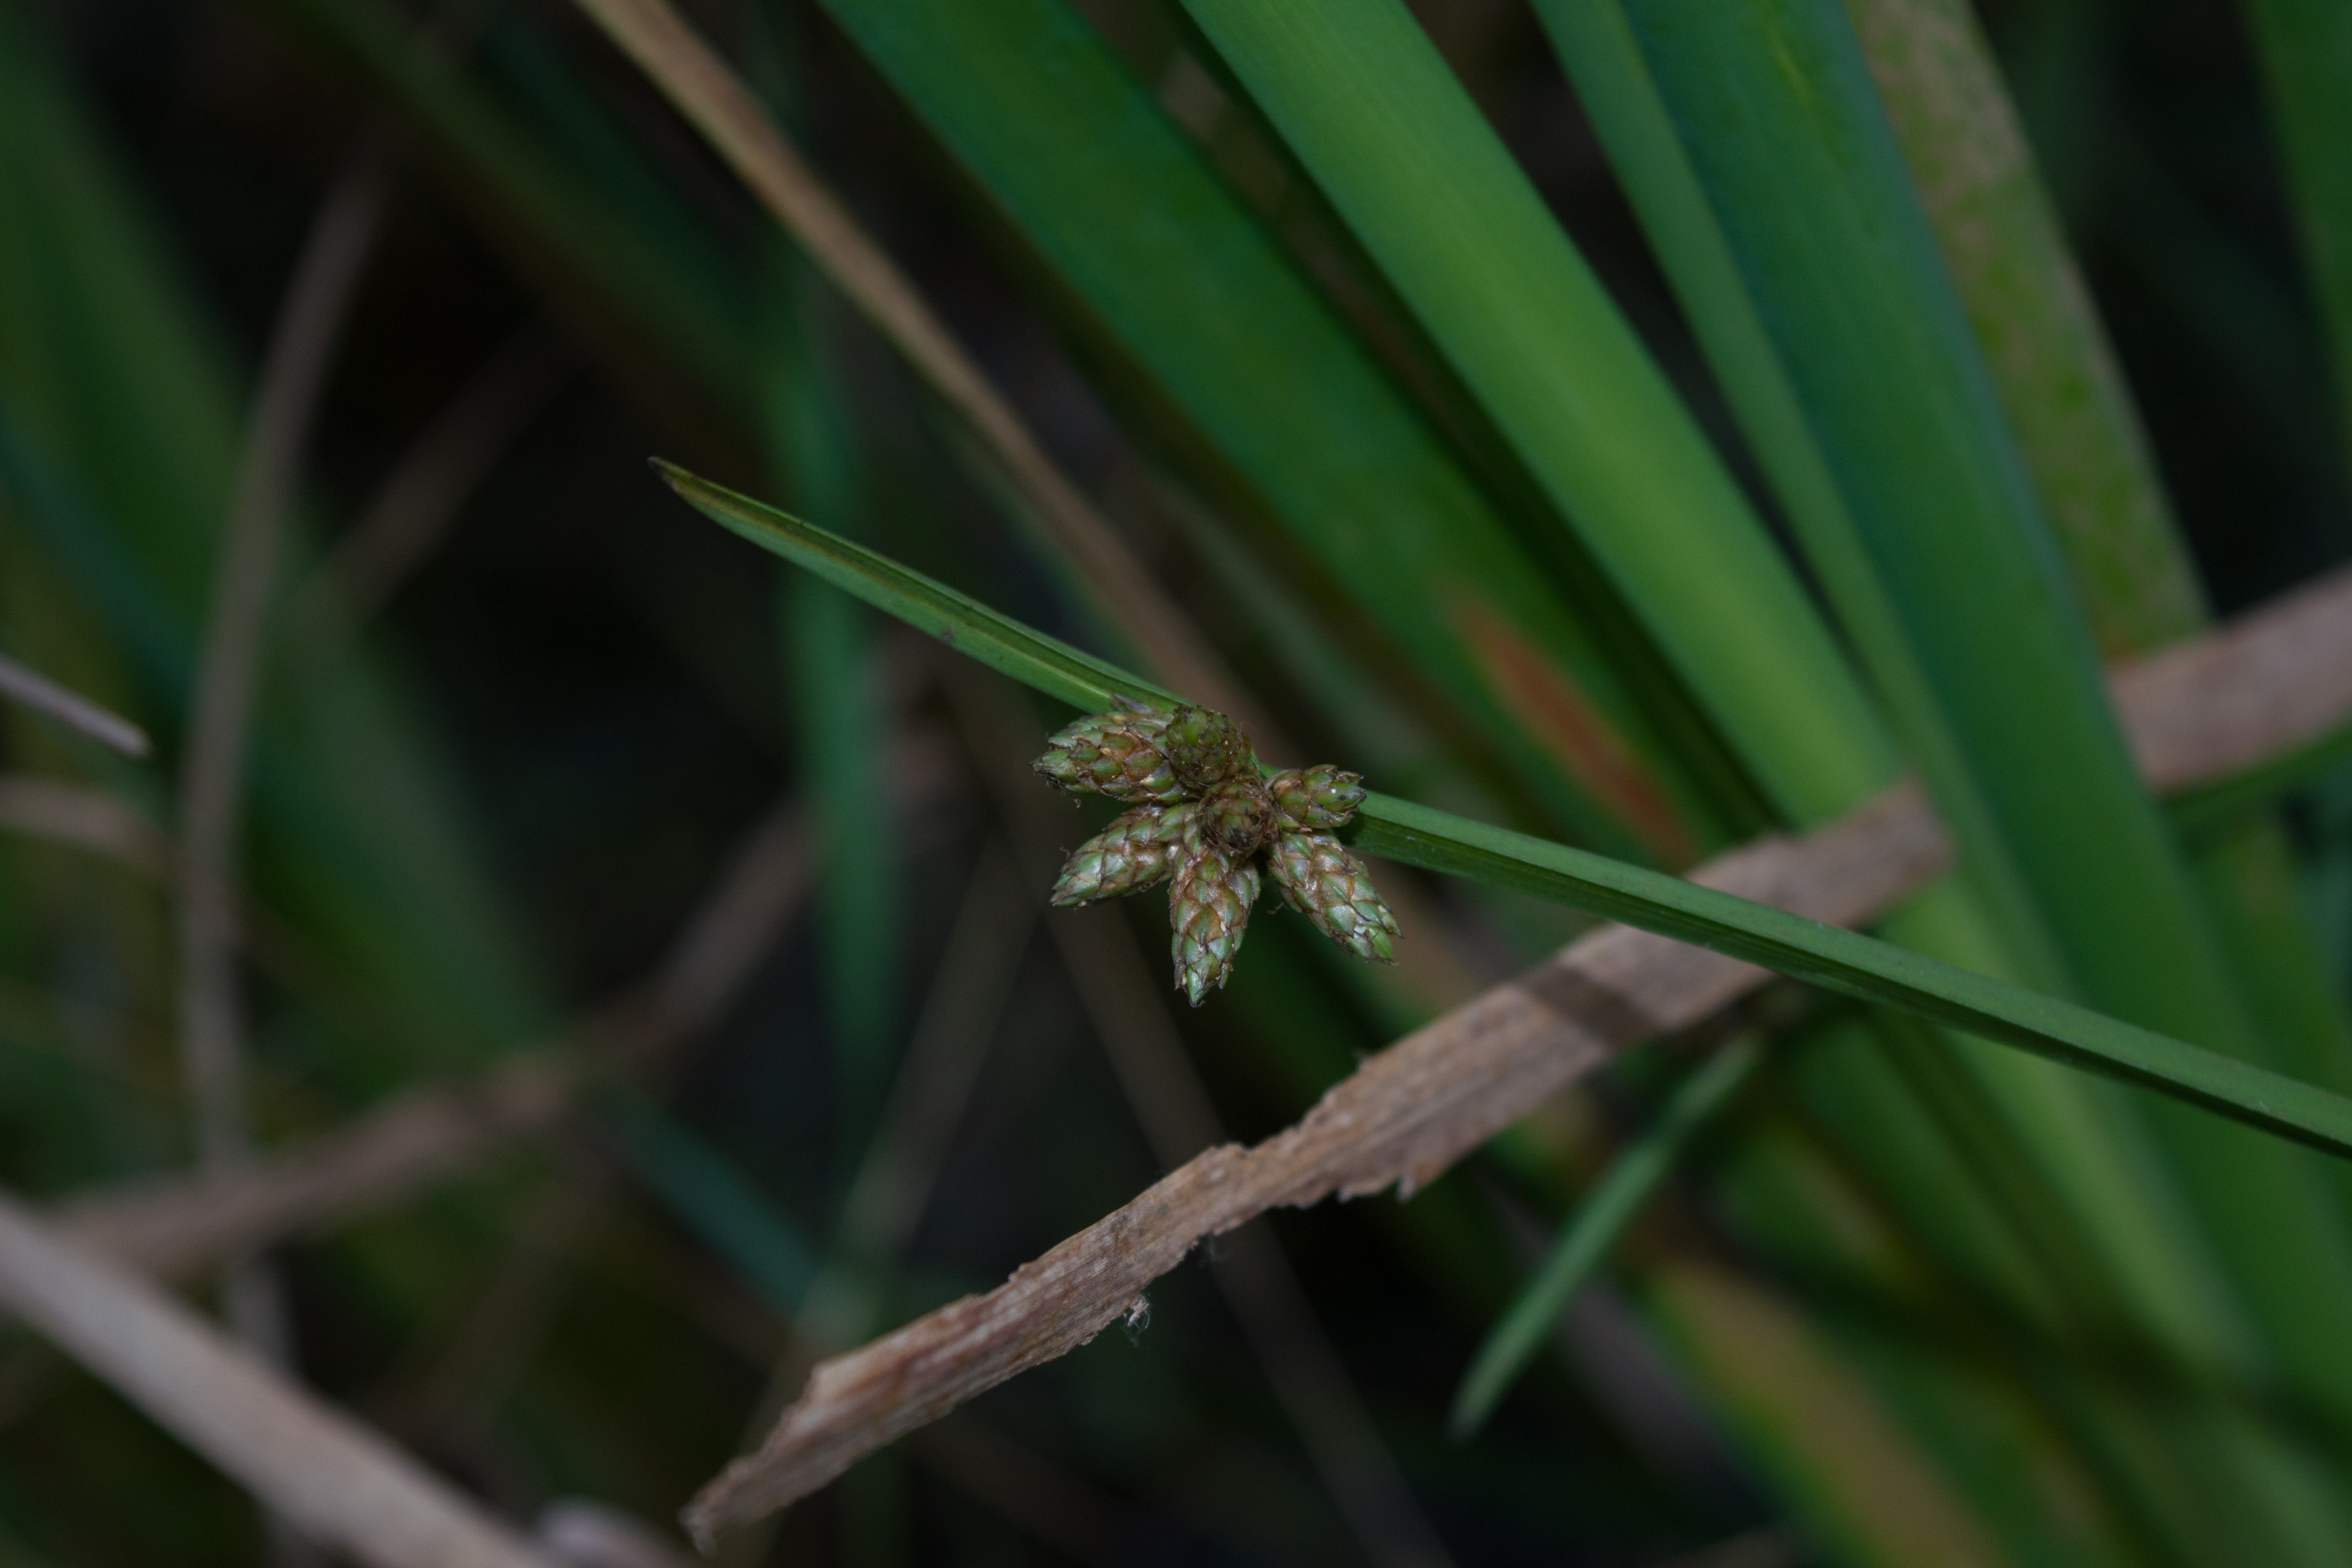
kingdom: Plantae
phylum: Tracheophyta
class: Liliopsida
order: Poales
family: Cyperaceae
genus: Schoenoplectiella
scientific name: Schoenoplectiella mucronata
